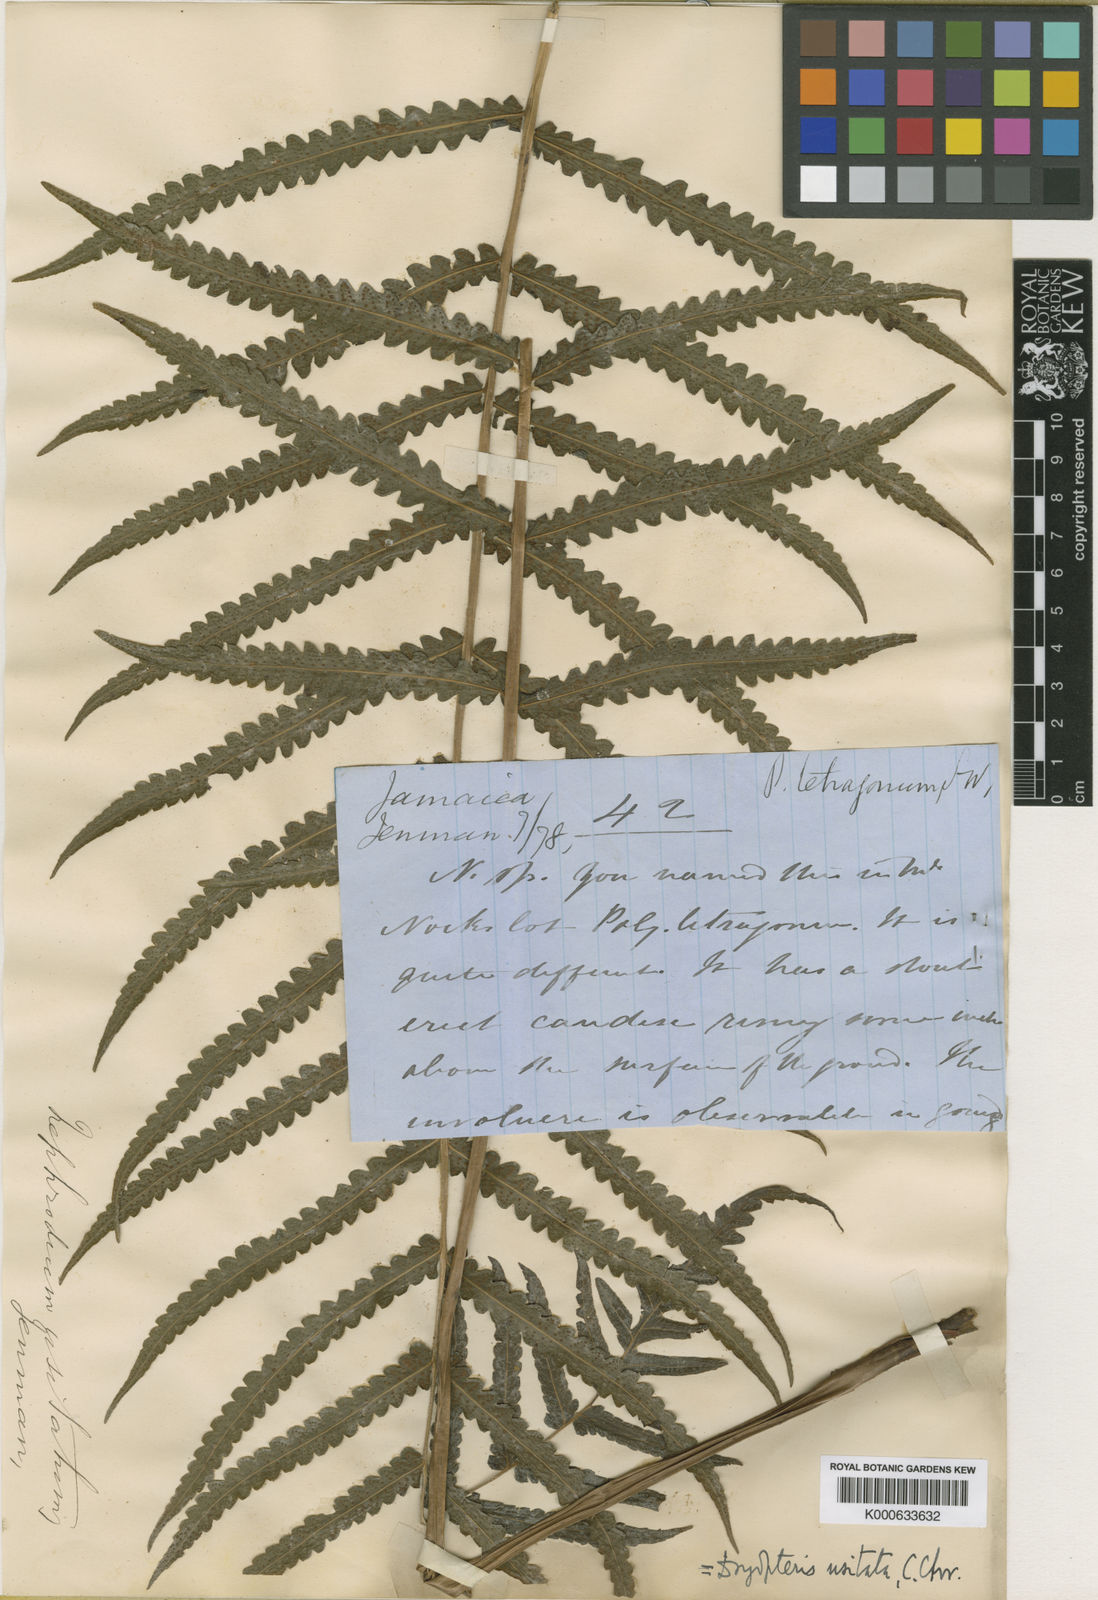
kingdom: Plantae
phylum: Tracheophyta
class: Polypodiopsida
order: Polypodiales
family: Thelypteridaceae
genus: Goniopteris
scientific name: Goniopteris
